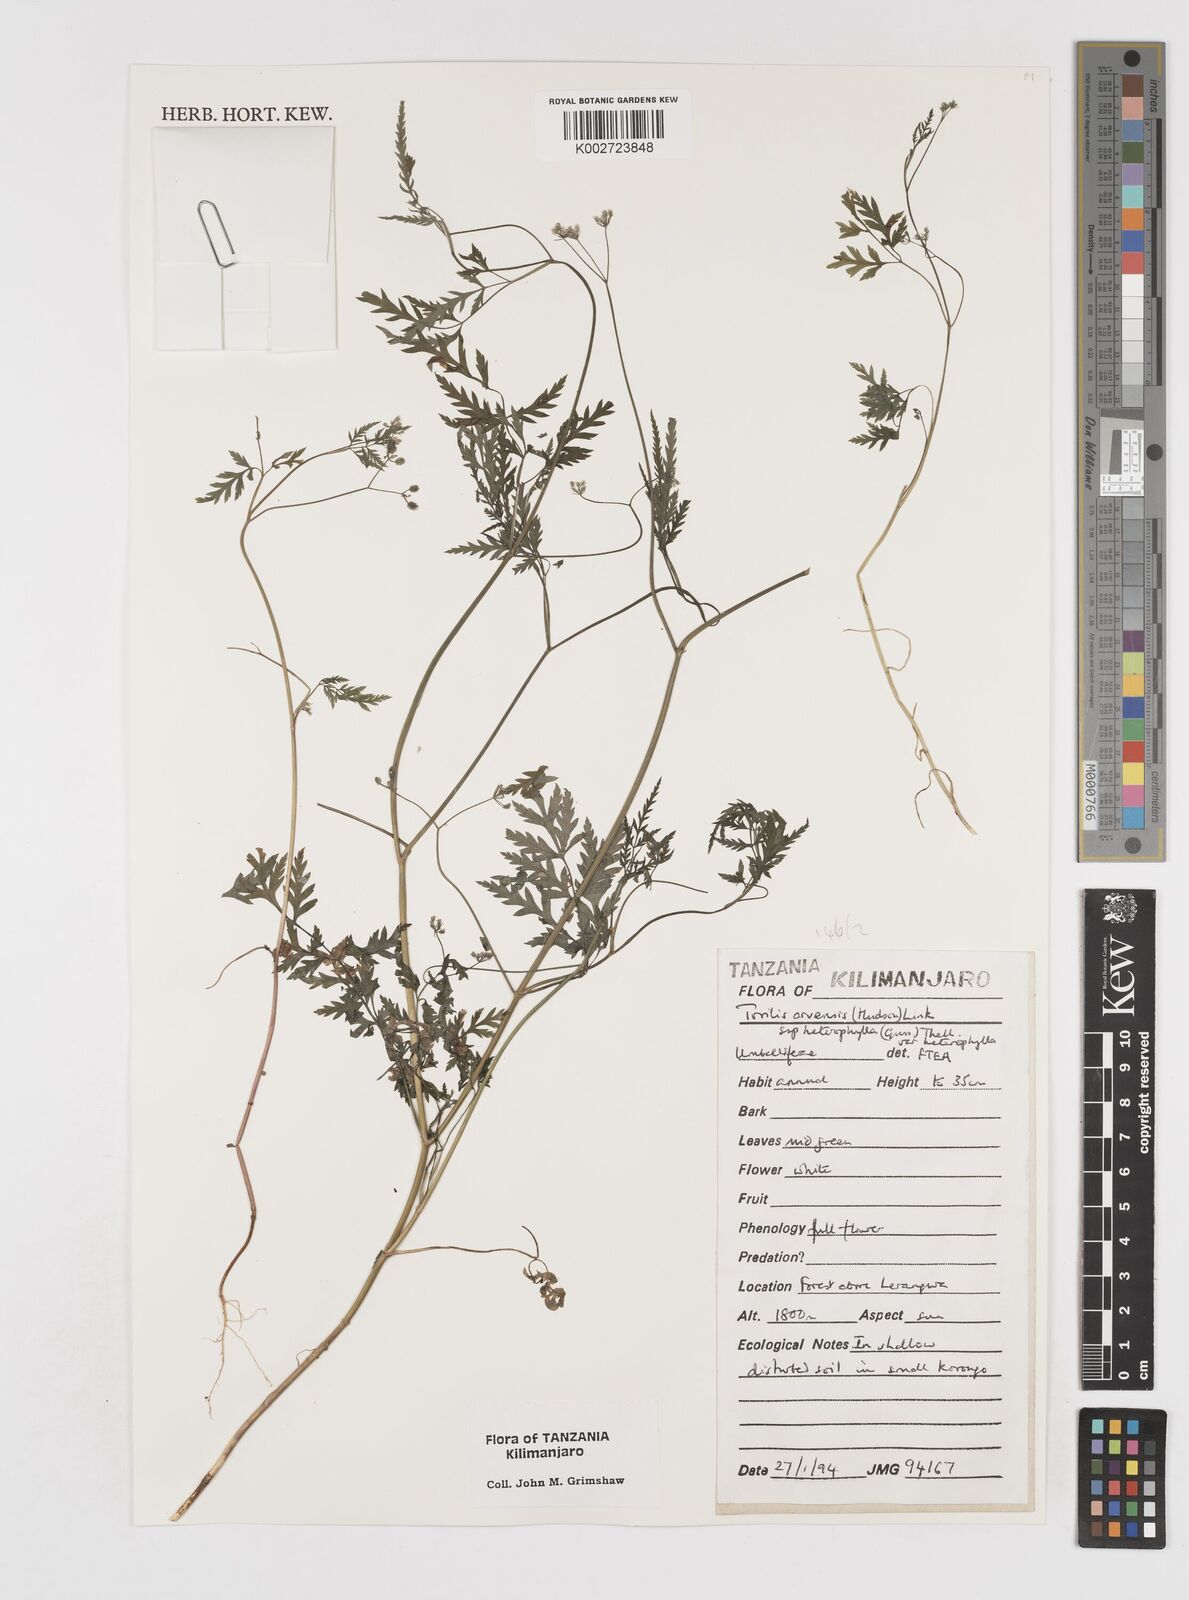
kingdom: Plantae
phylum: Tracheophyta
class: Magnoliopsida
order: Apiales
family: Apiaceae
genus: Torilis
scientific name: Torilis arvensis
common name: Spreading hedge-parsley
